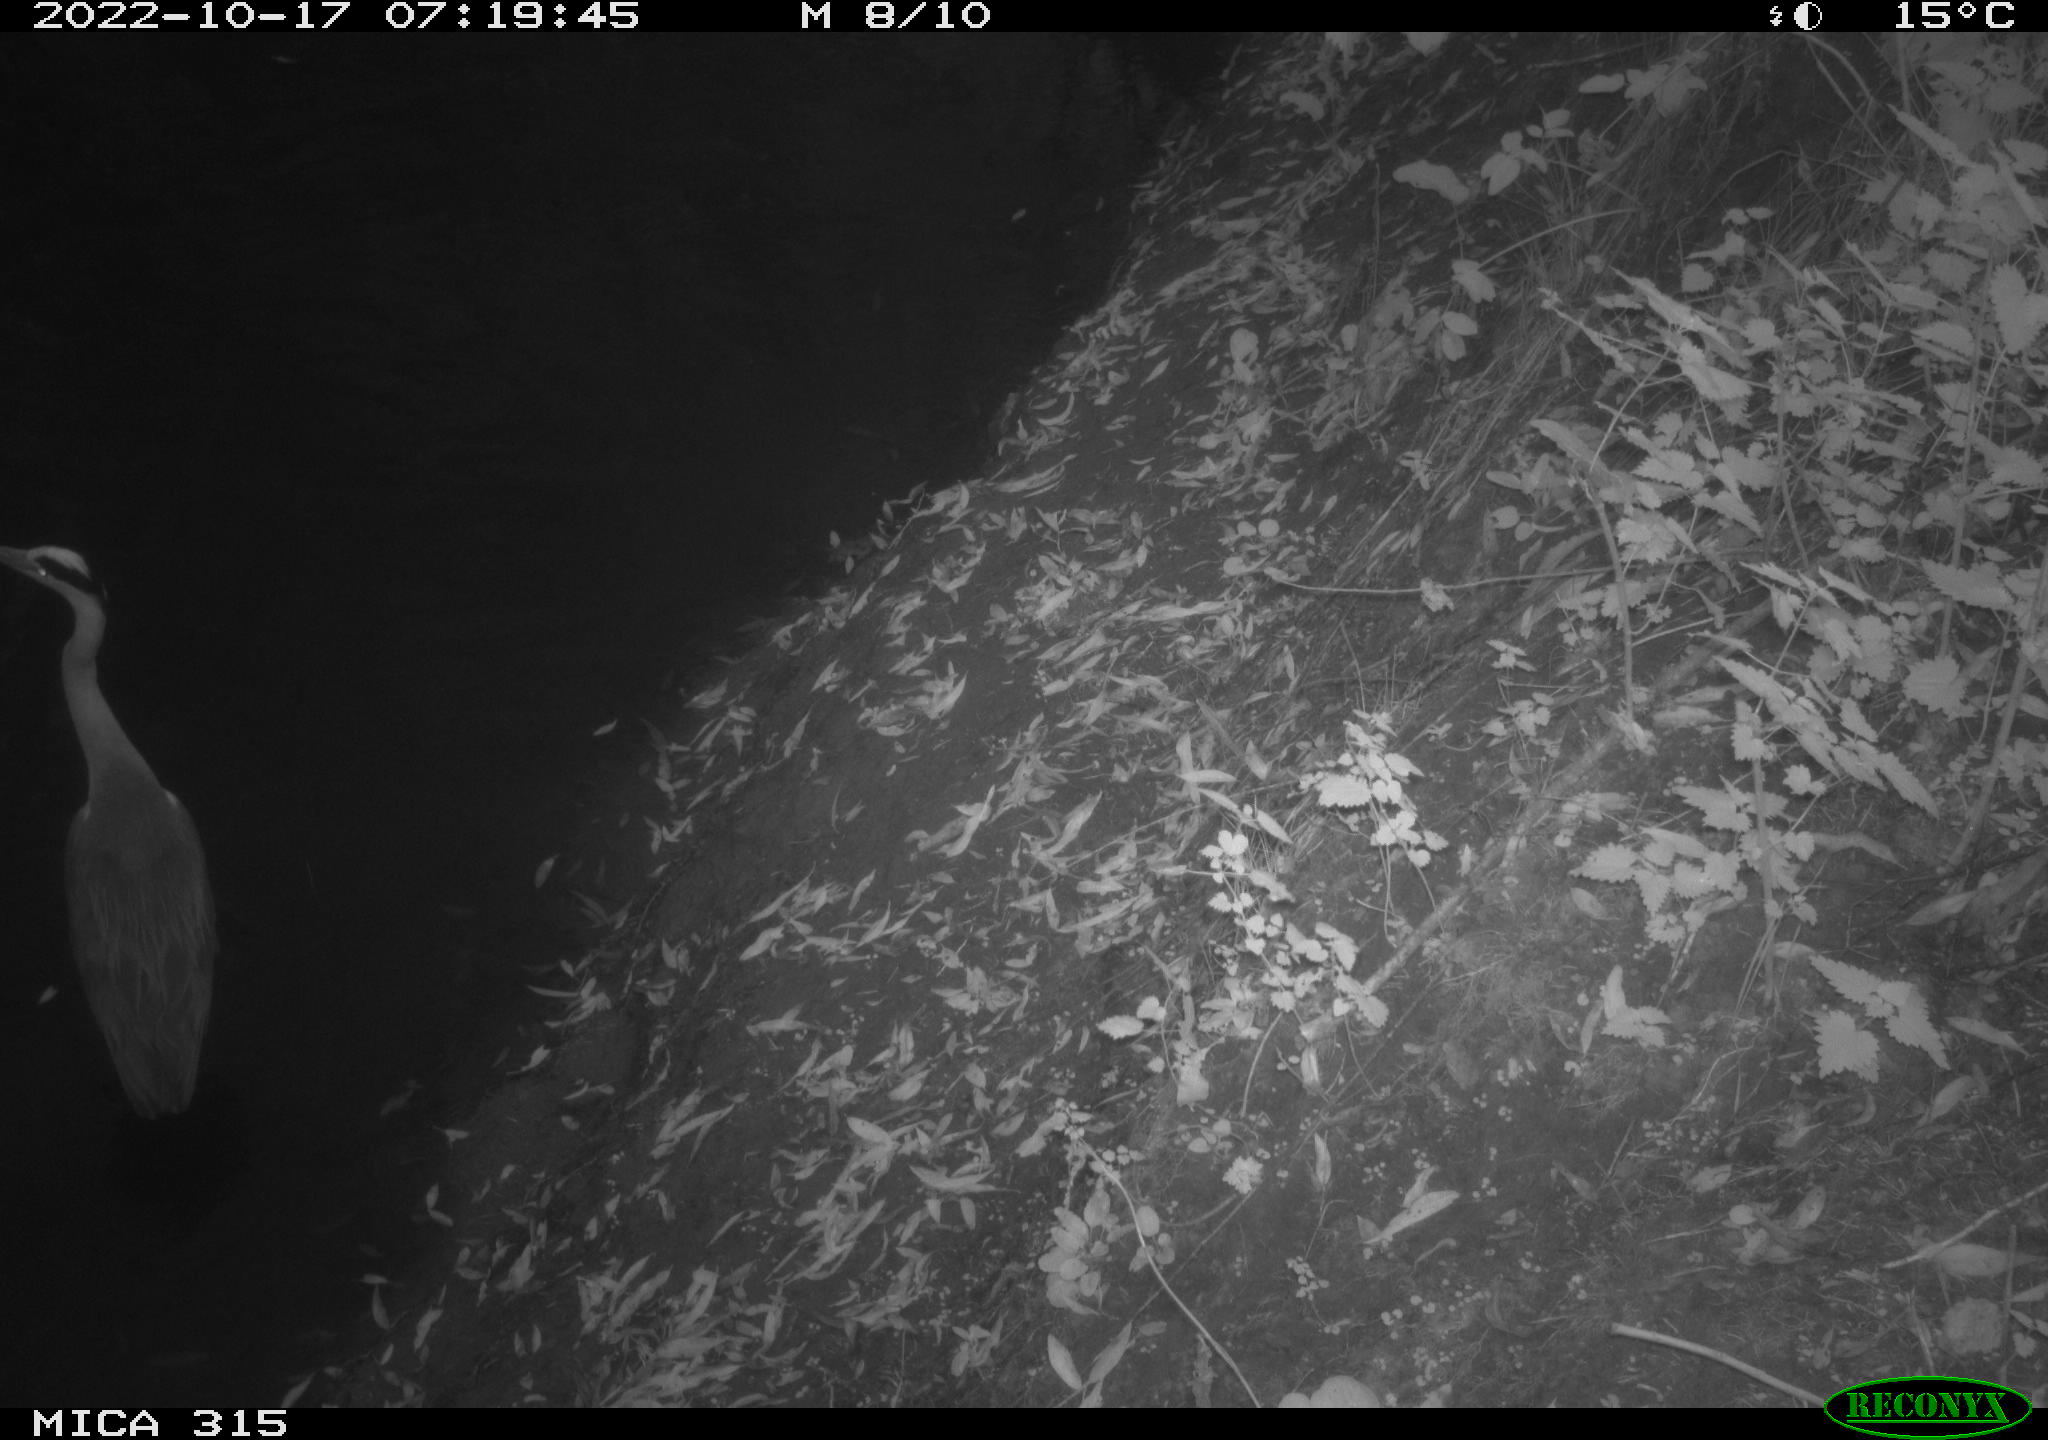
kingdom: Animalia
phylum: Chordata
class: Aves
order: Pelecaniformes
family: Ardeidae
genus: Ardea
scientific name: Ardea cinerea
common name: Grey heron
